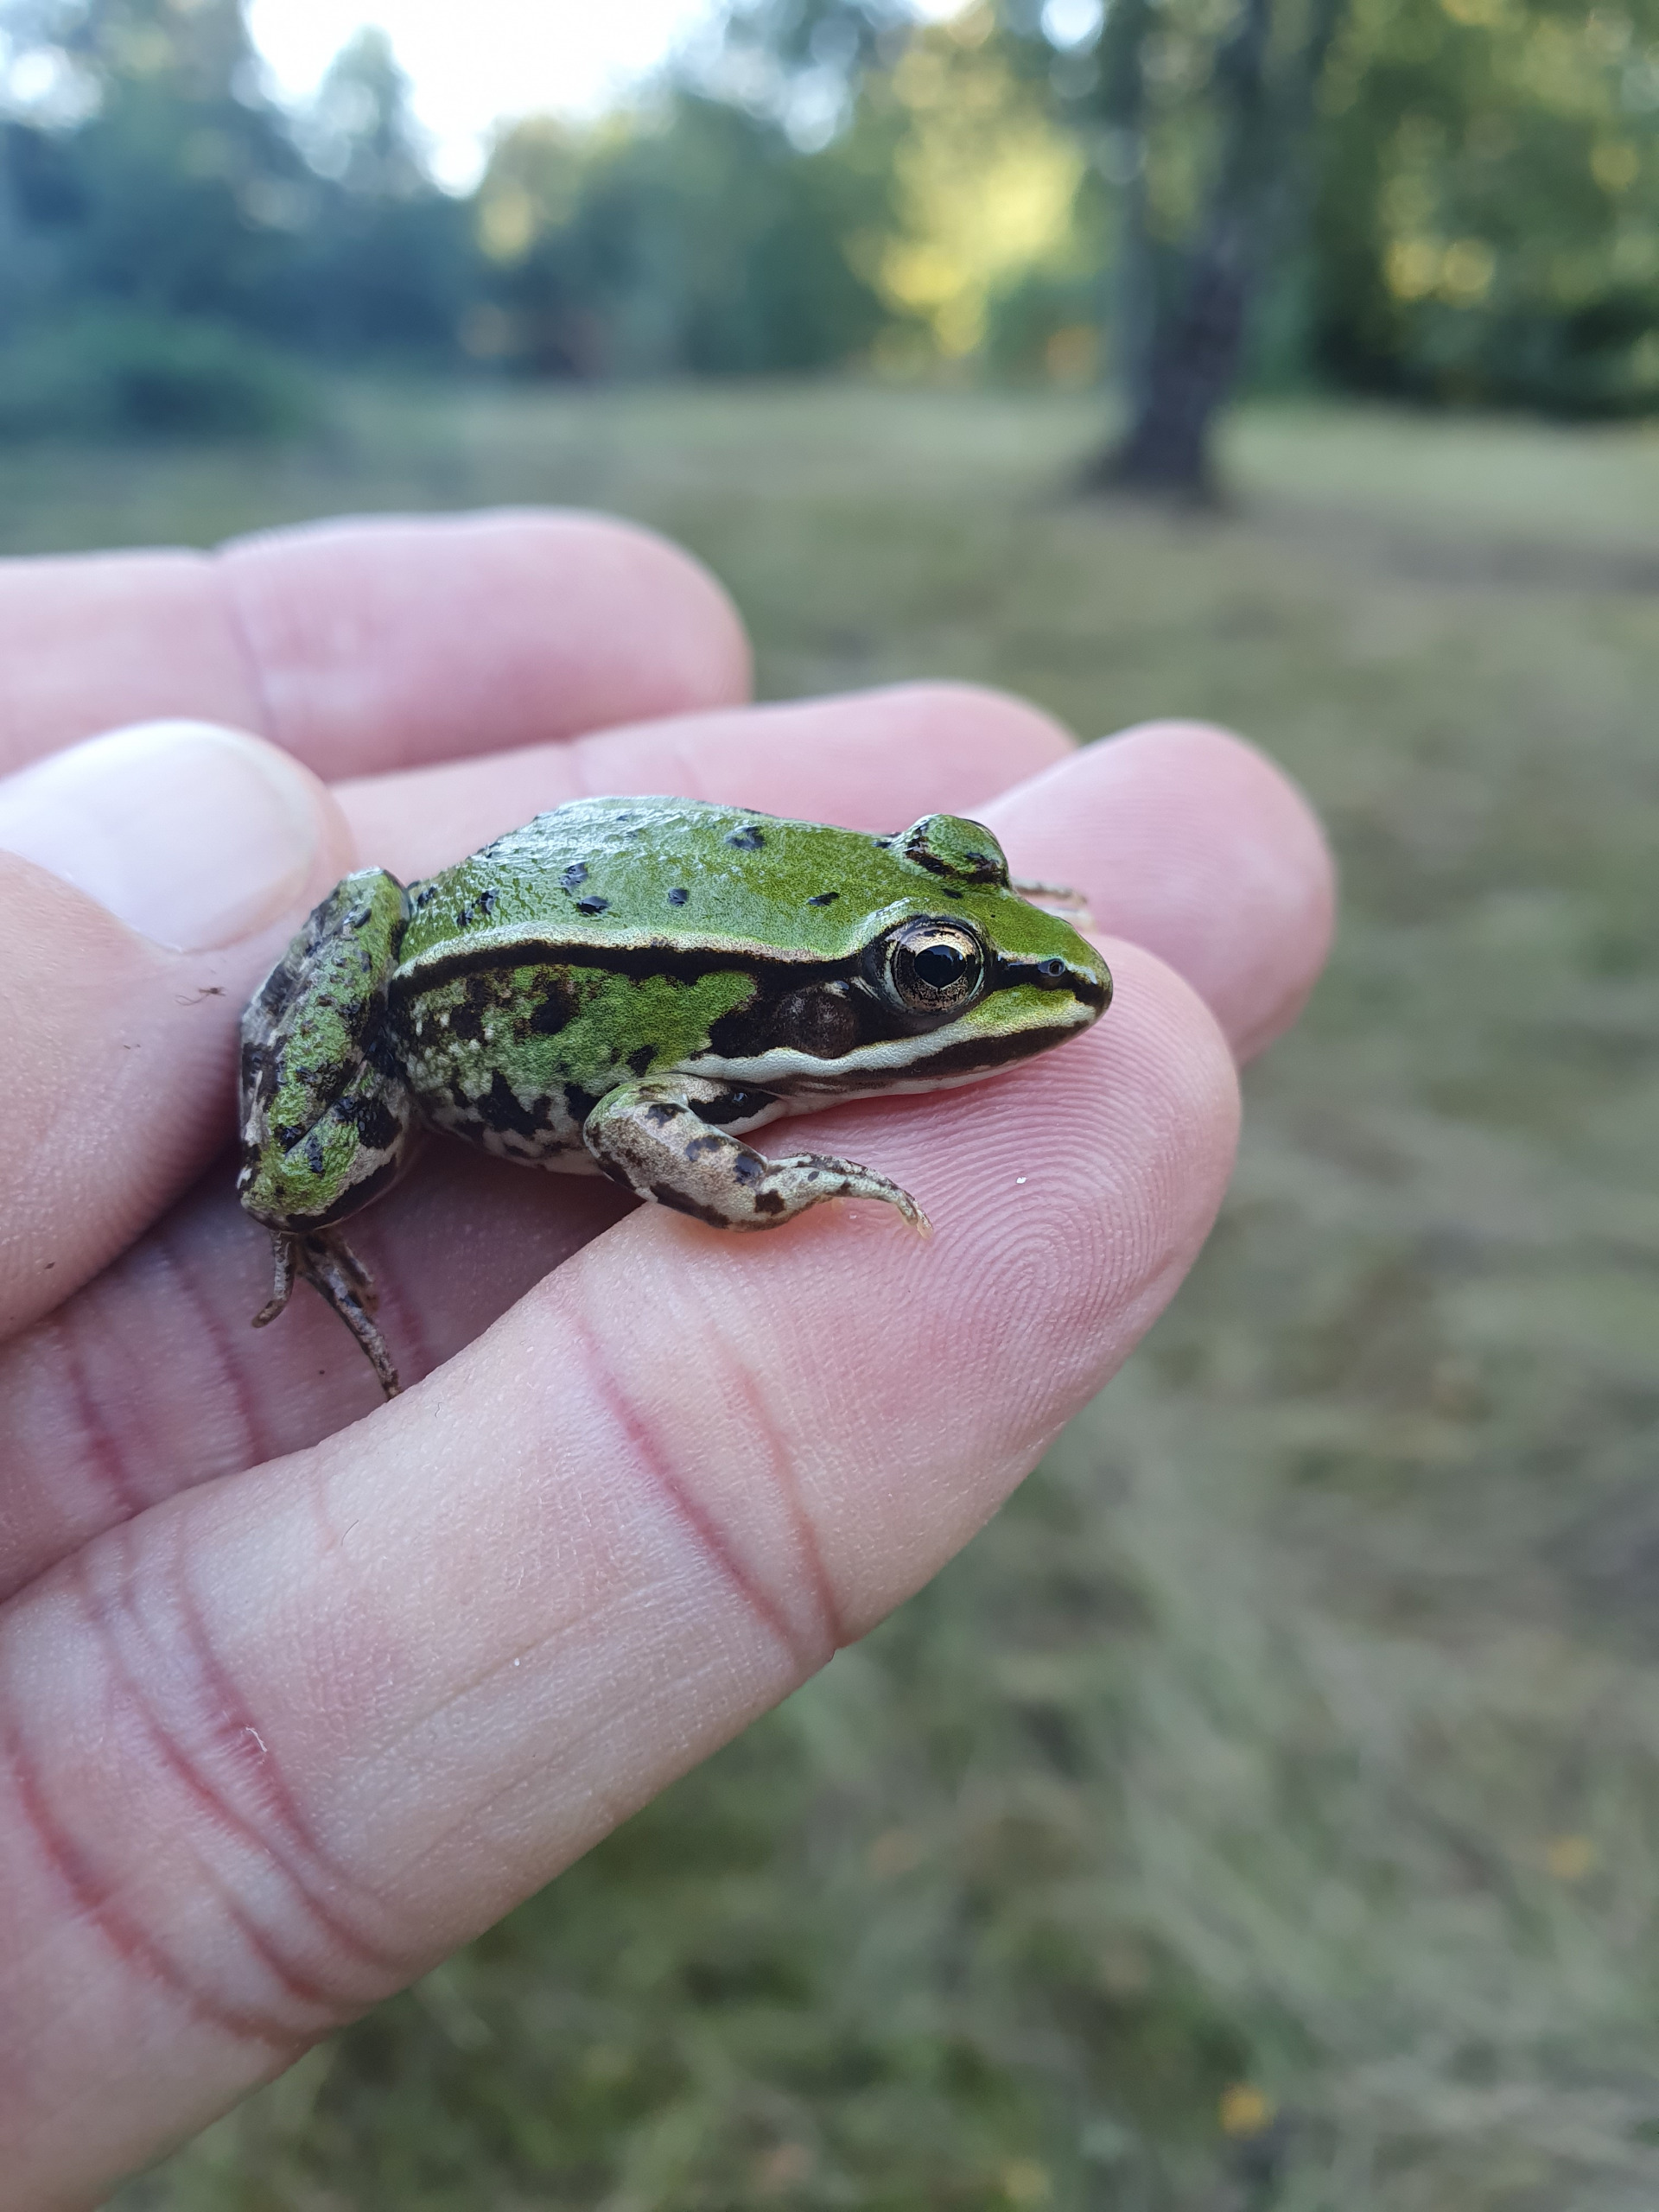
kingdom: Animalia
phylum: Chordata
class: Amphibia
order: Anura
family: Ranidae
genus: Pelophylax
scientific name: Pelophylax lessonae
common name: Grøn frø
